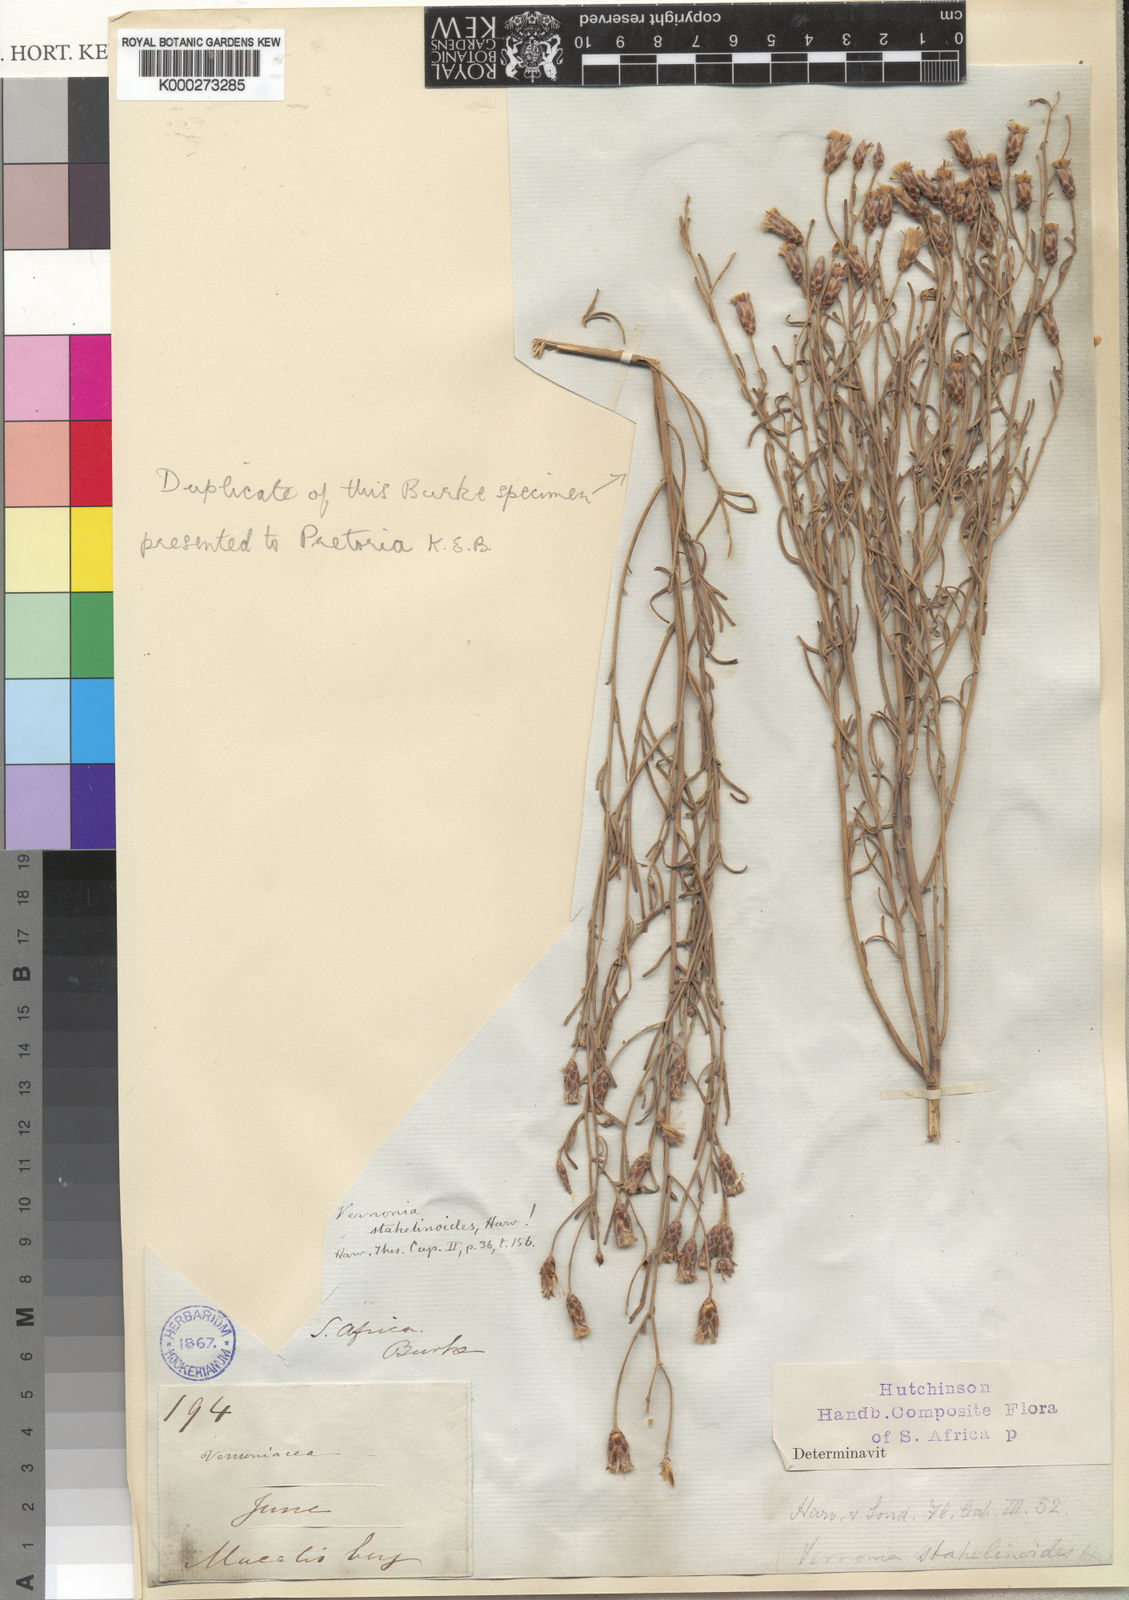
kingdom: Plantae
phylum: Tracheophyta
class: Magnoliopsida
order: Asterales
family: Asteraceae
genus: Oocephala
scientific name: Oocephala staehelinoides
